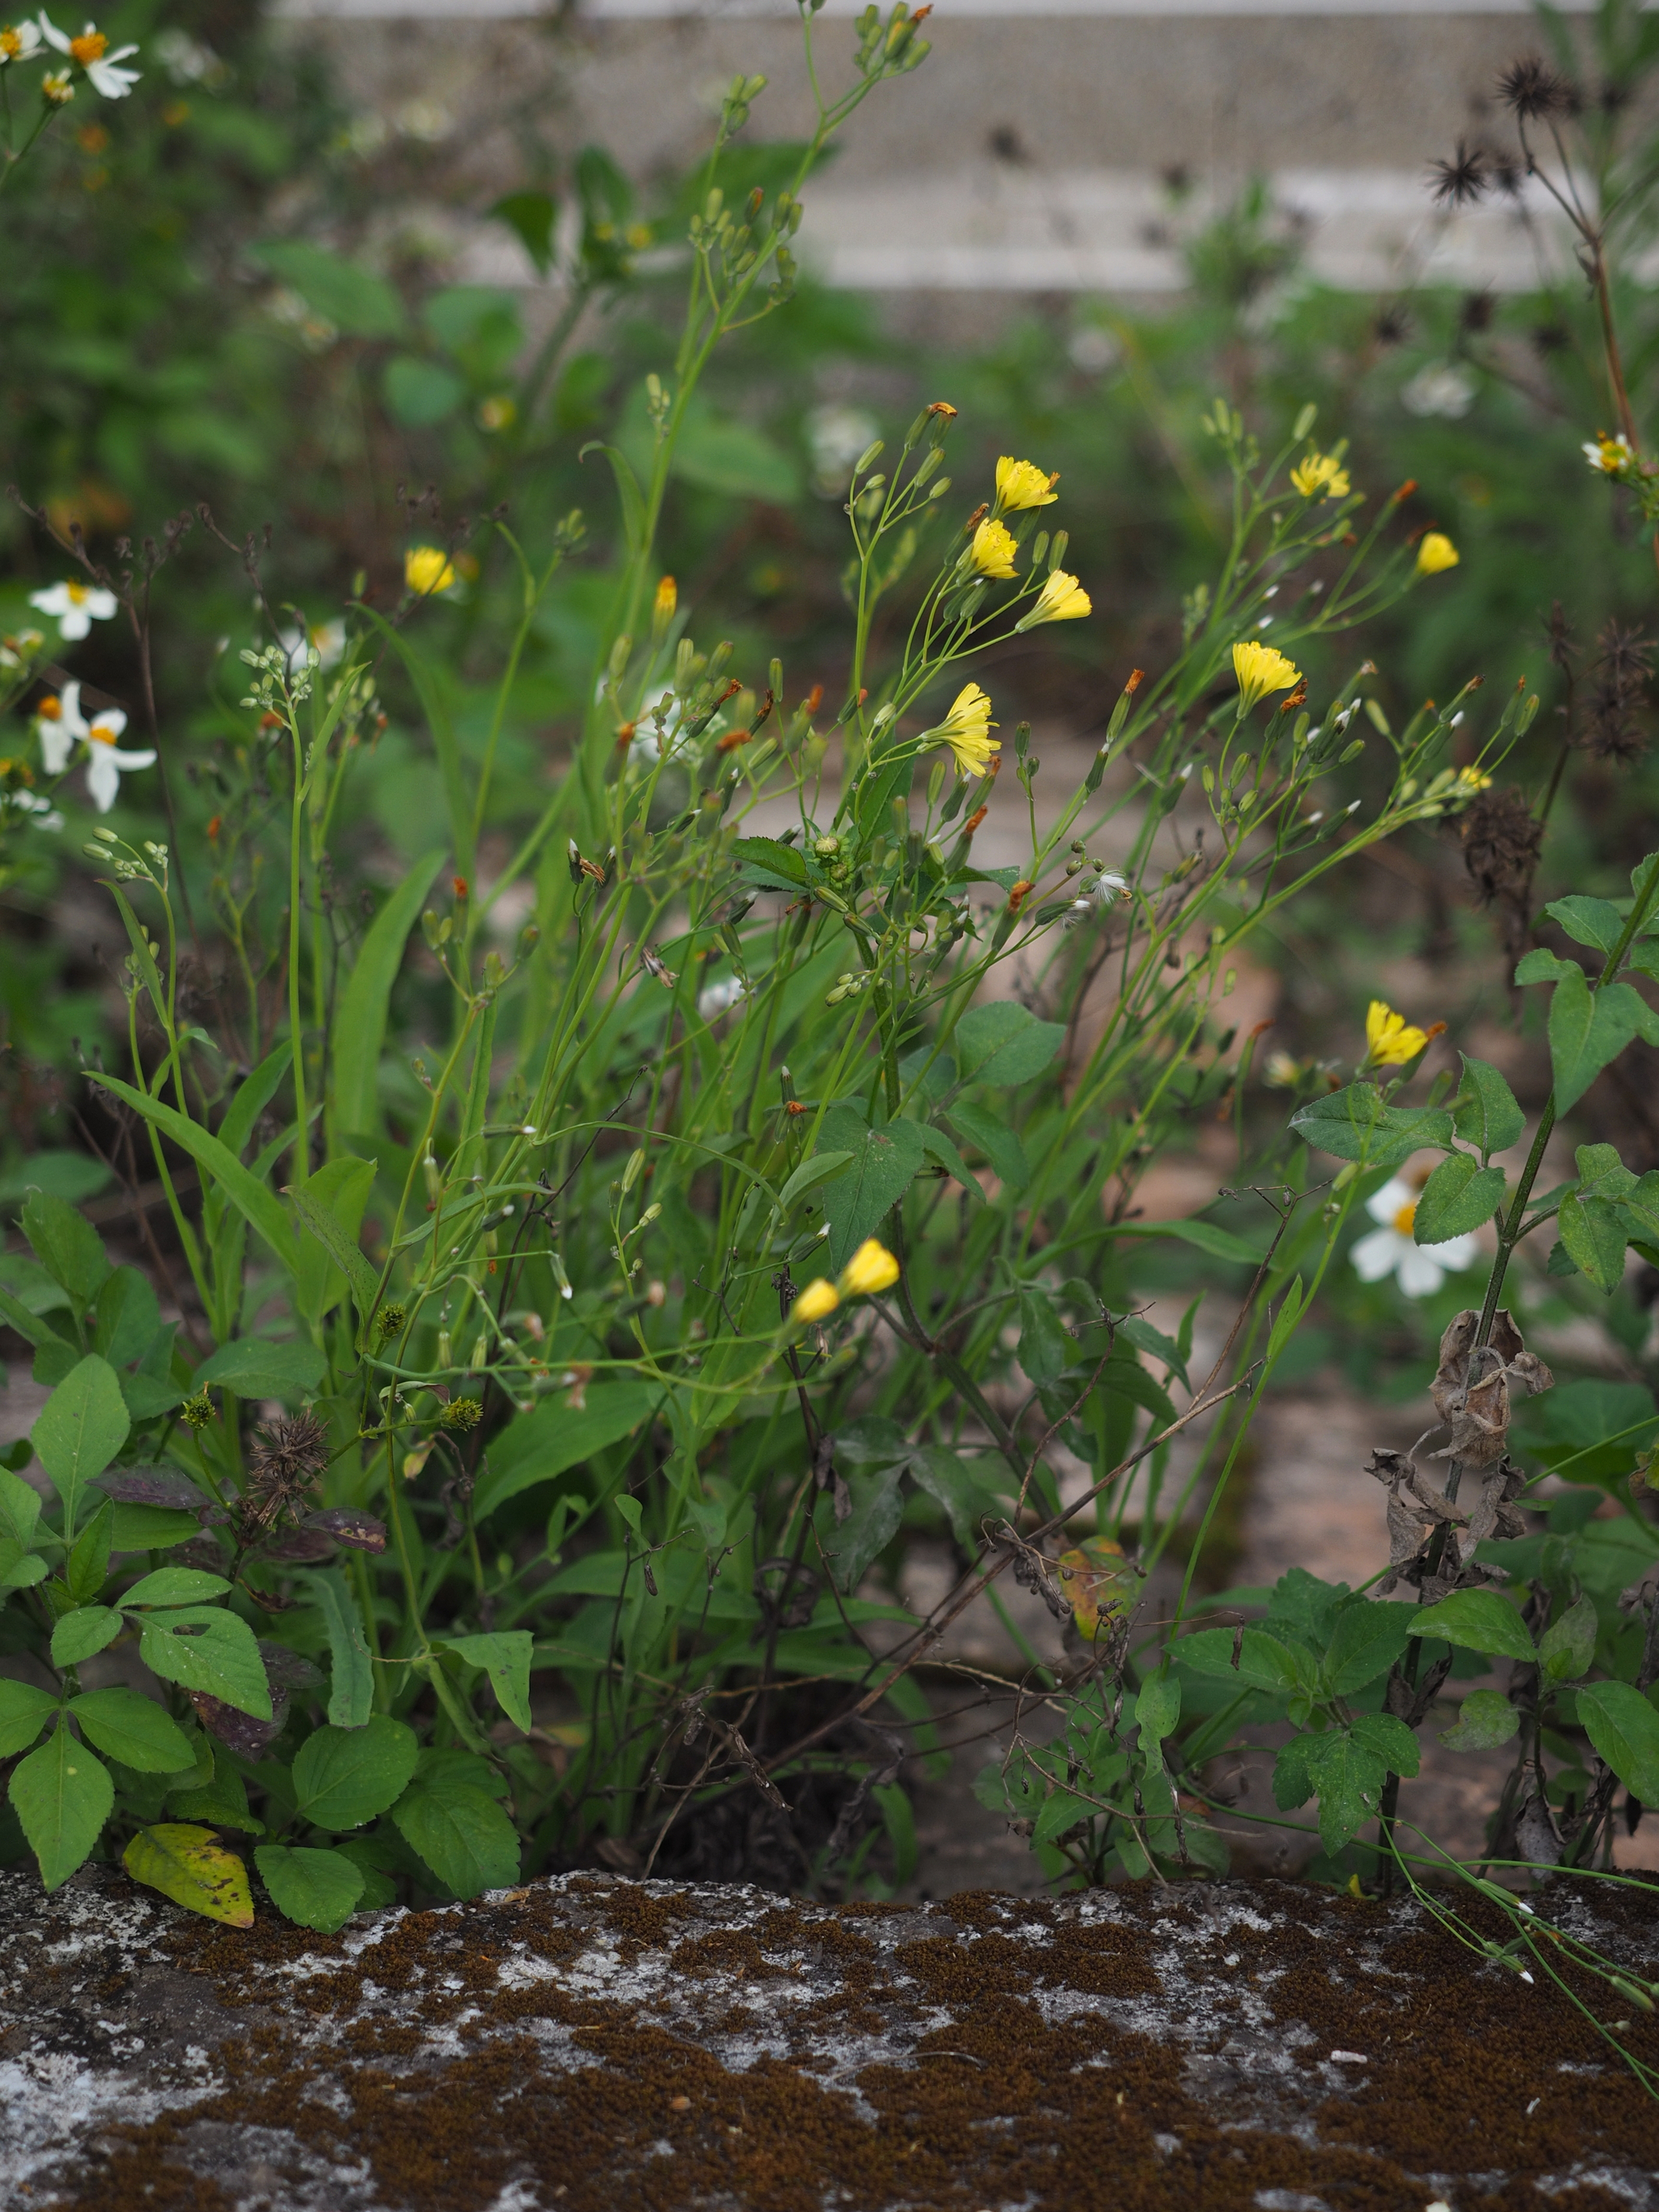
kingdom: Plantae
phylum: Tracheophyta
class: Magnoliopsida
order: Asterales
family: Asteraceae
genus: Ixeris
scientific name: Ixeris chinensis
